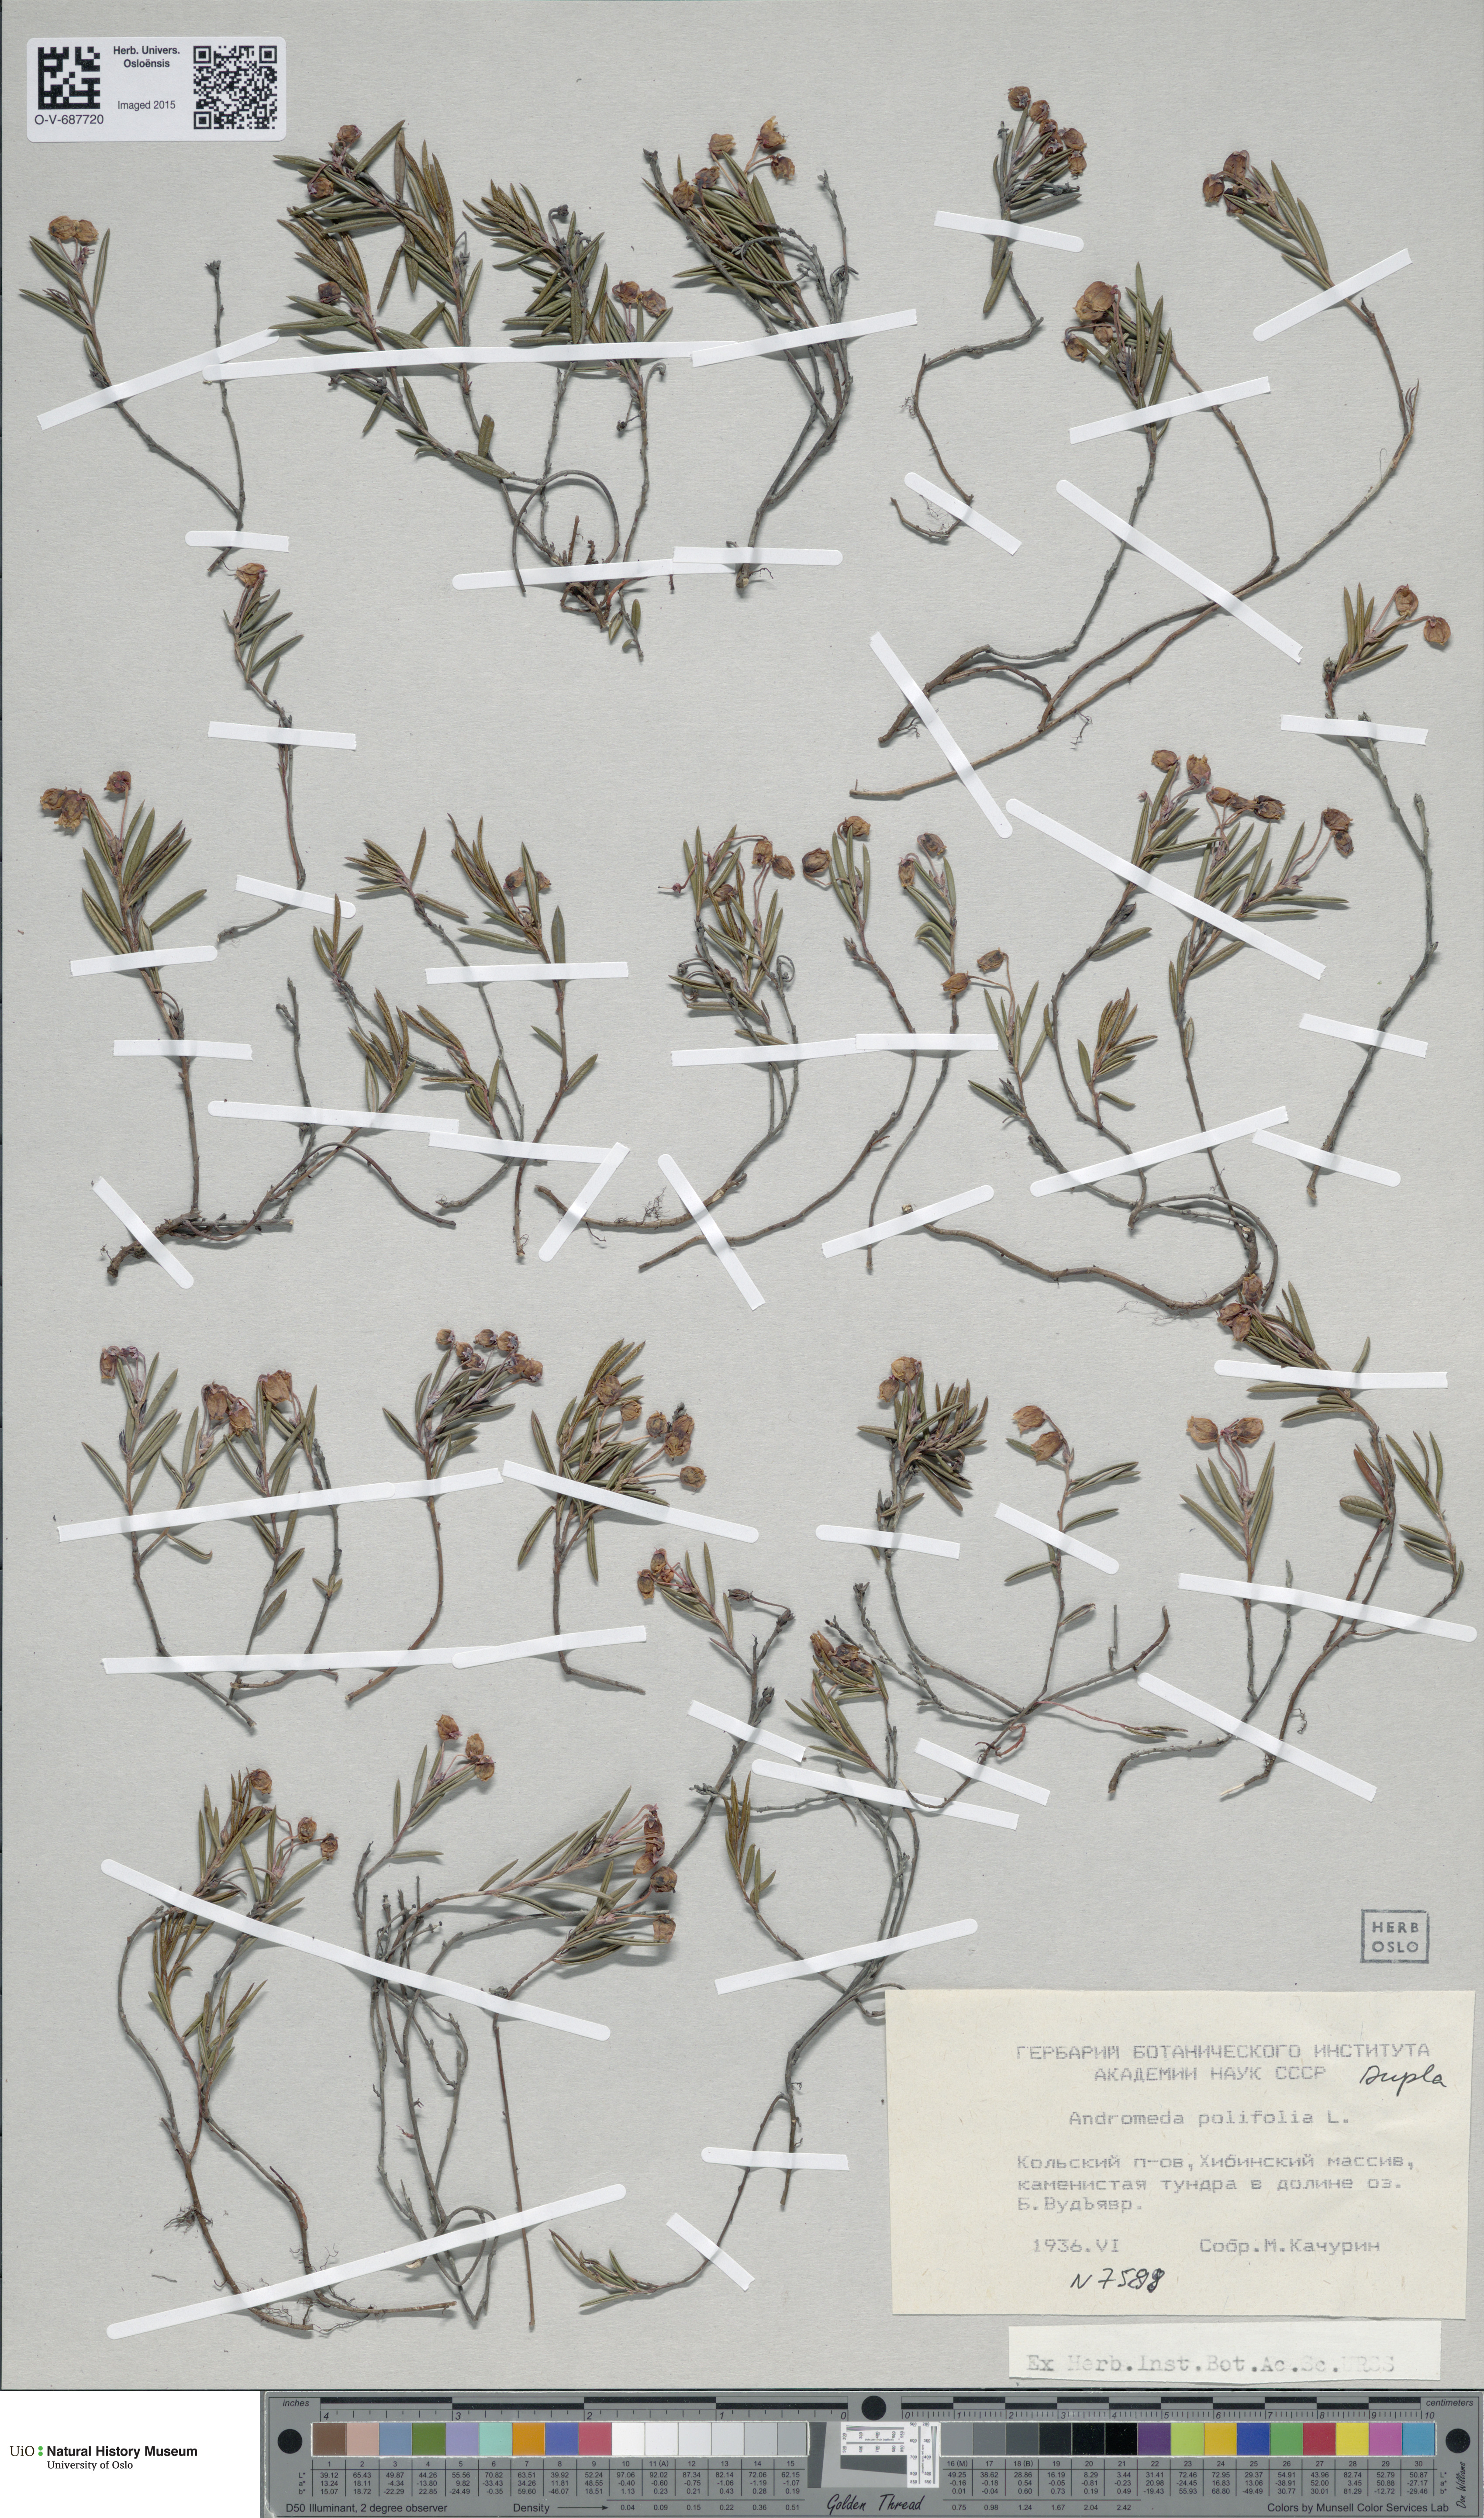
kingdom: Plantae
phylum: Tracheophyta
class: Magnoliopsida
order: Ericales
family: Ericaceae
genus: Andromeda
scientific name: Andromeda polifolia
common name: Bog-rosemary
